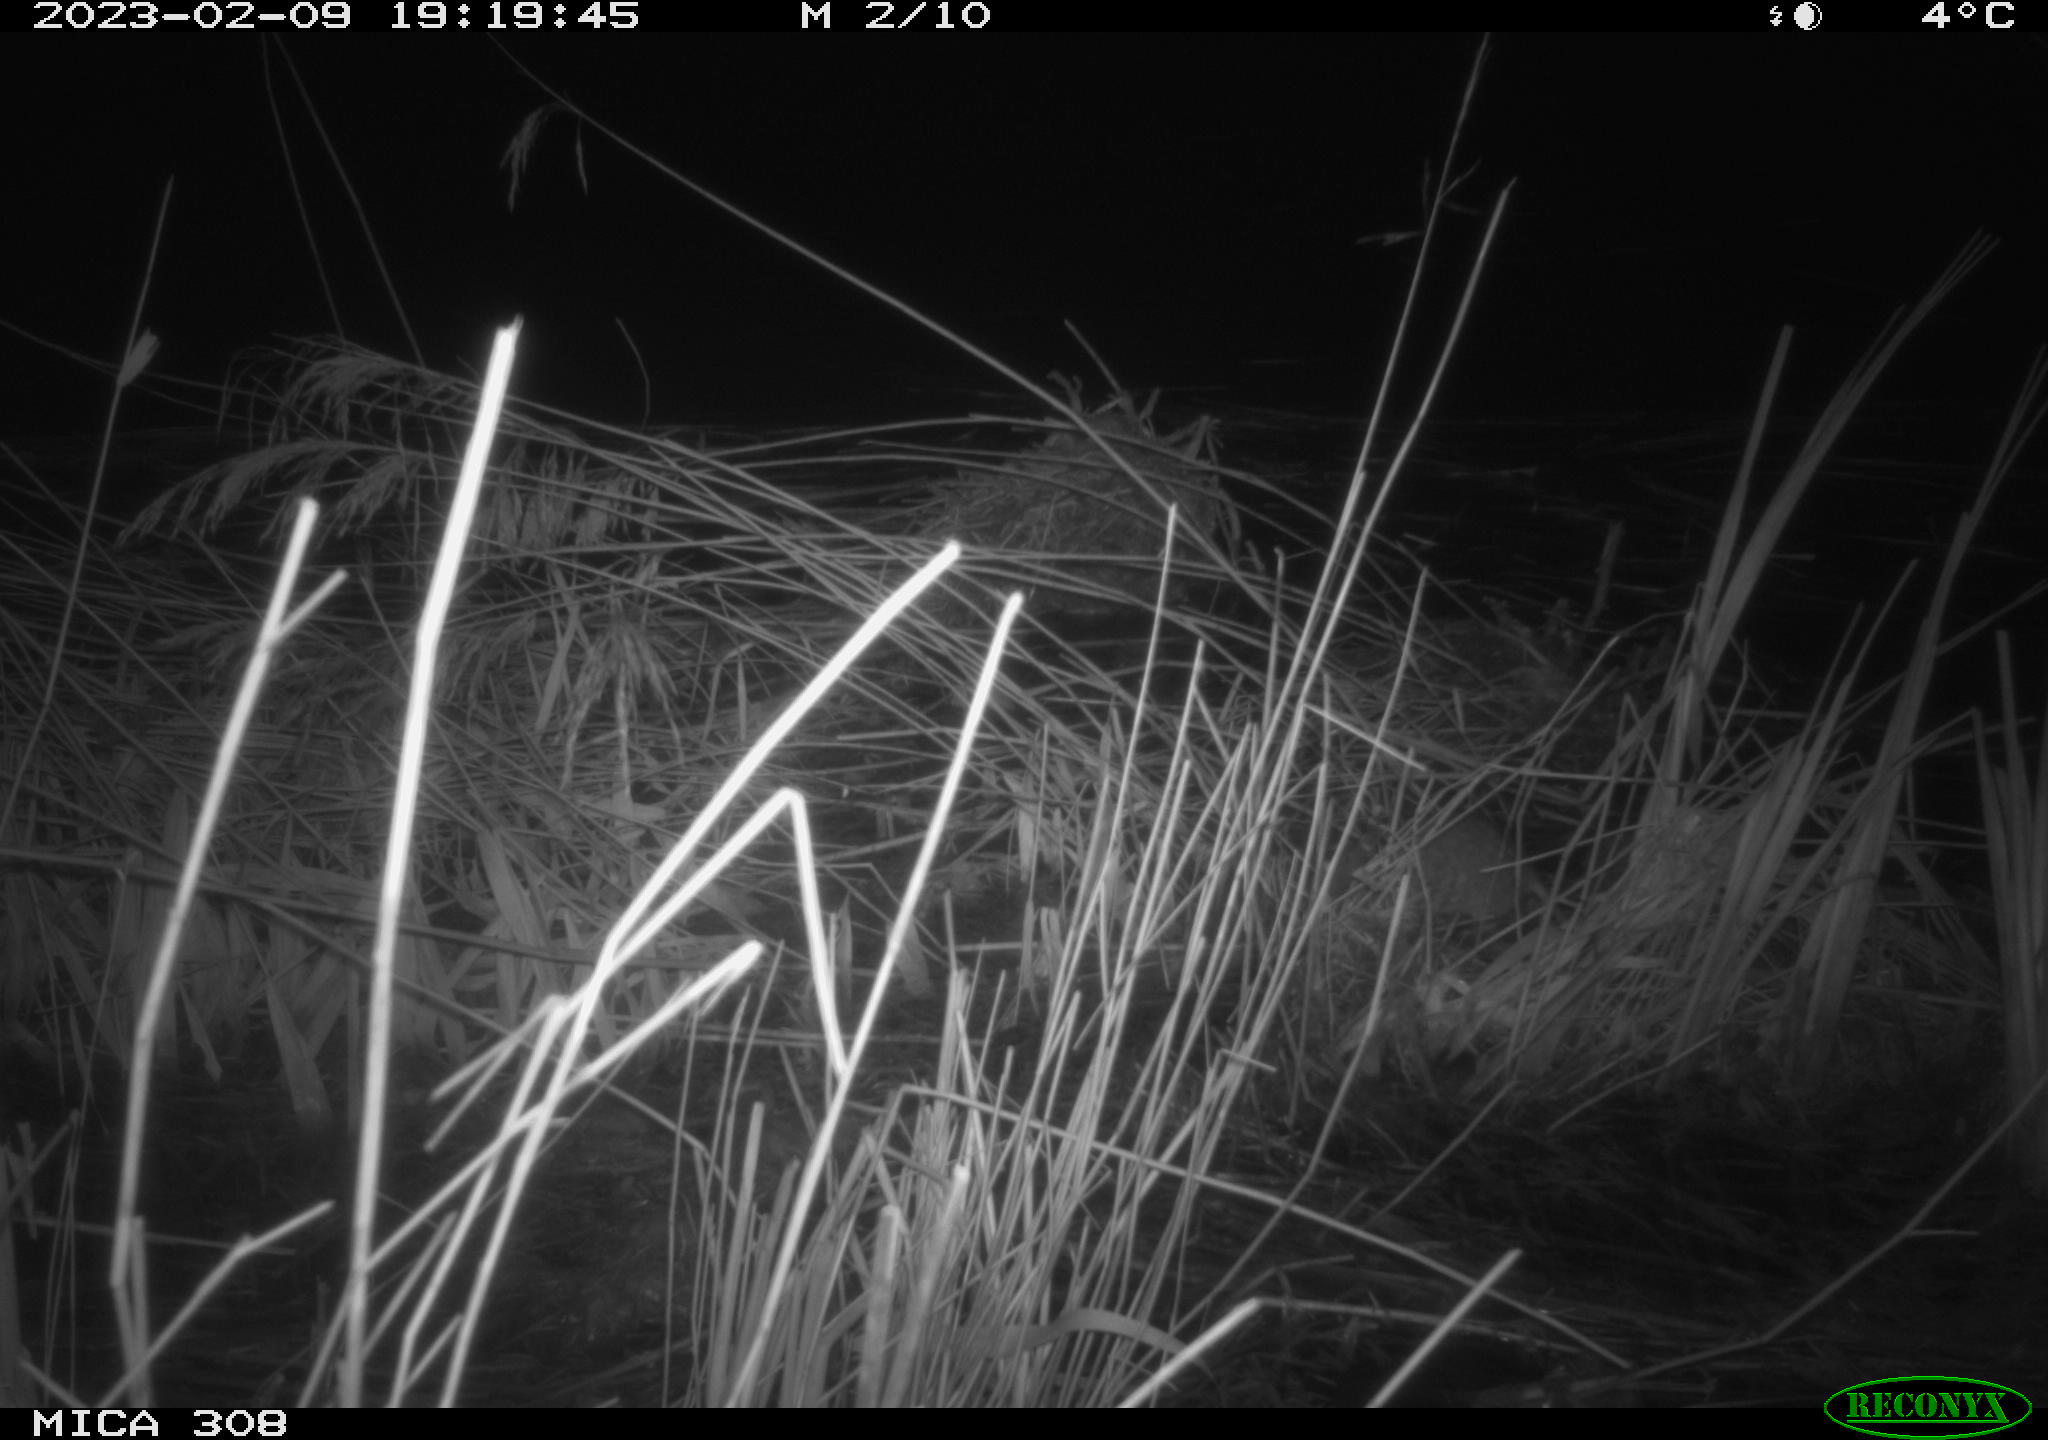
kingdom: Animalia
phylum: Chordata
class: Mammalia
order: Rodentia
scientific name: Rodentia
